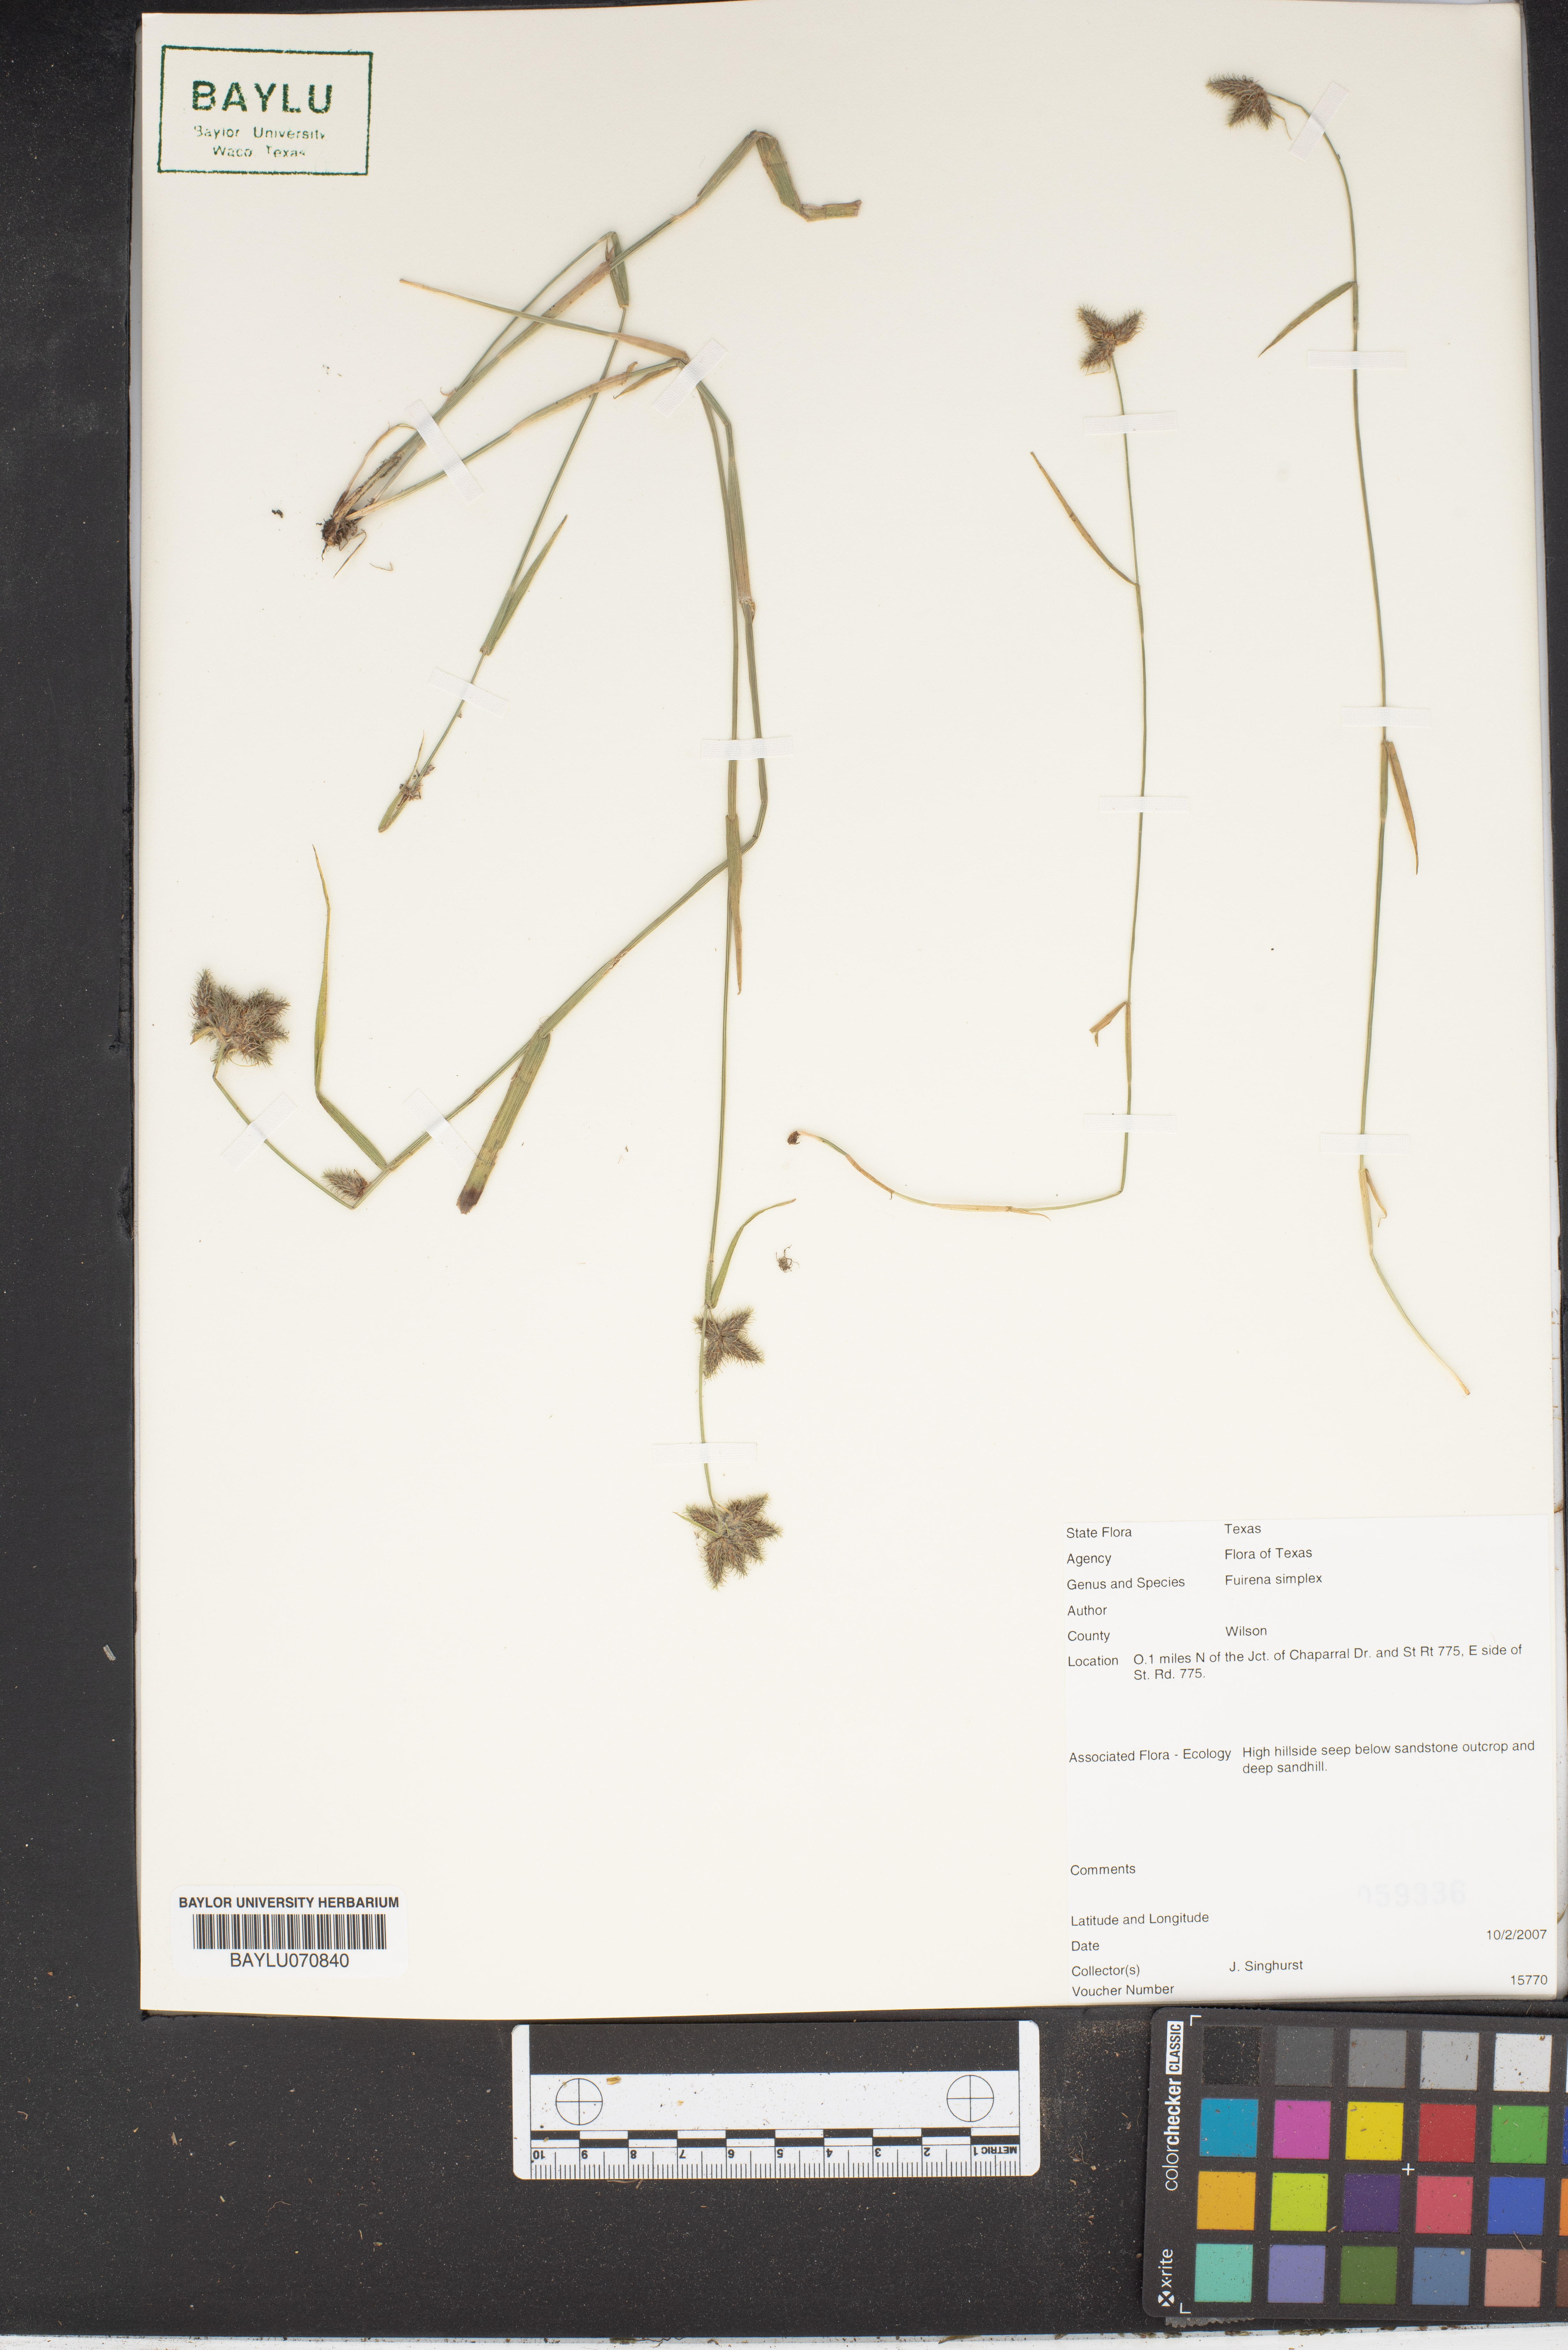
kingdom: Plantae
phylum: Tracheophyta
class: Liliopsida
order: Poales
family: Cyperaceae
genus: Fuirena
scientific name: Fuirena simplex
